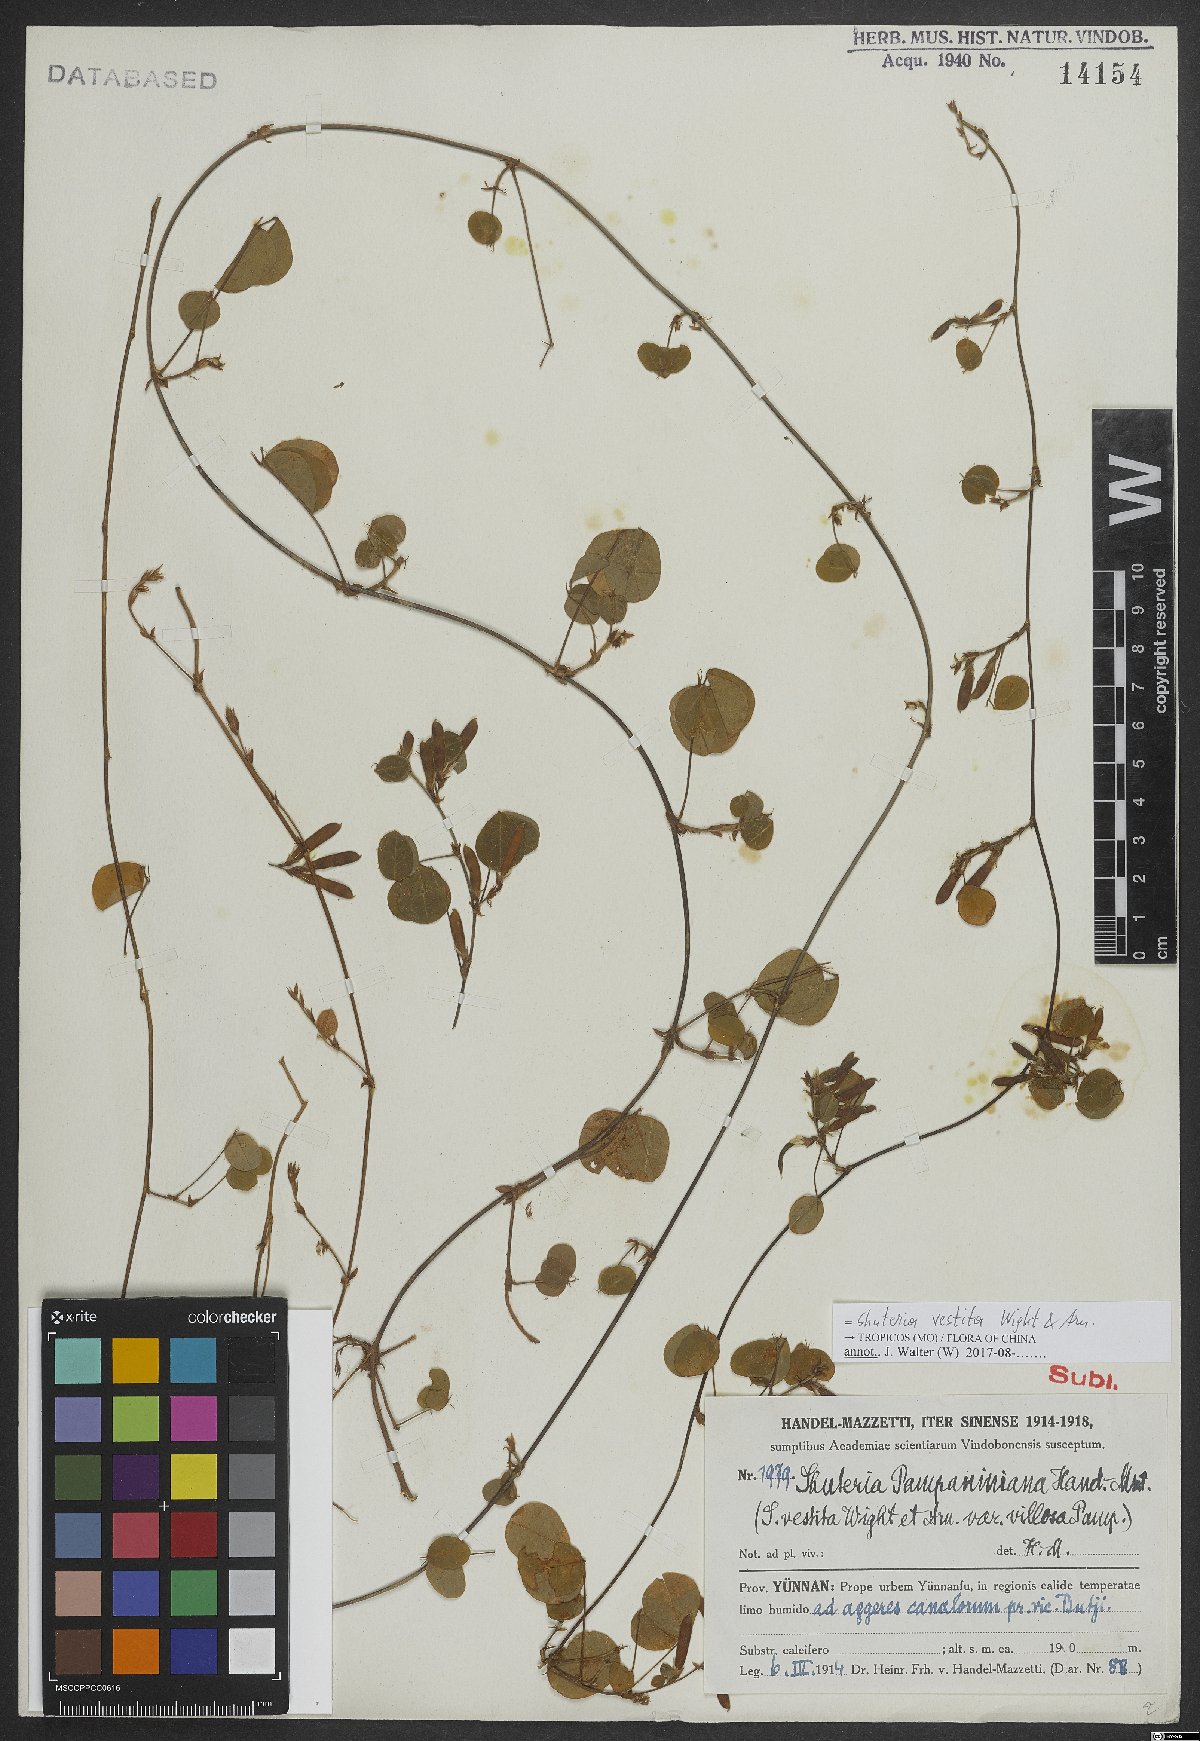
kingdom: Plantae
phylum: Tracheophyta
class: Magnoliopsida
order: Fabales
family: Fabaceae
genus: Shuteria
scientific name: Shuteria vestita
